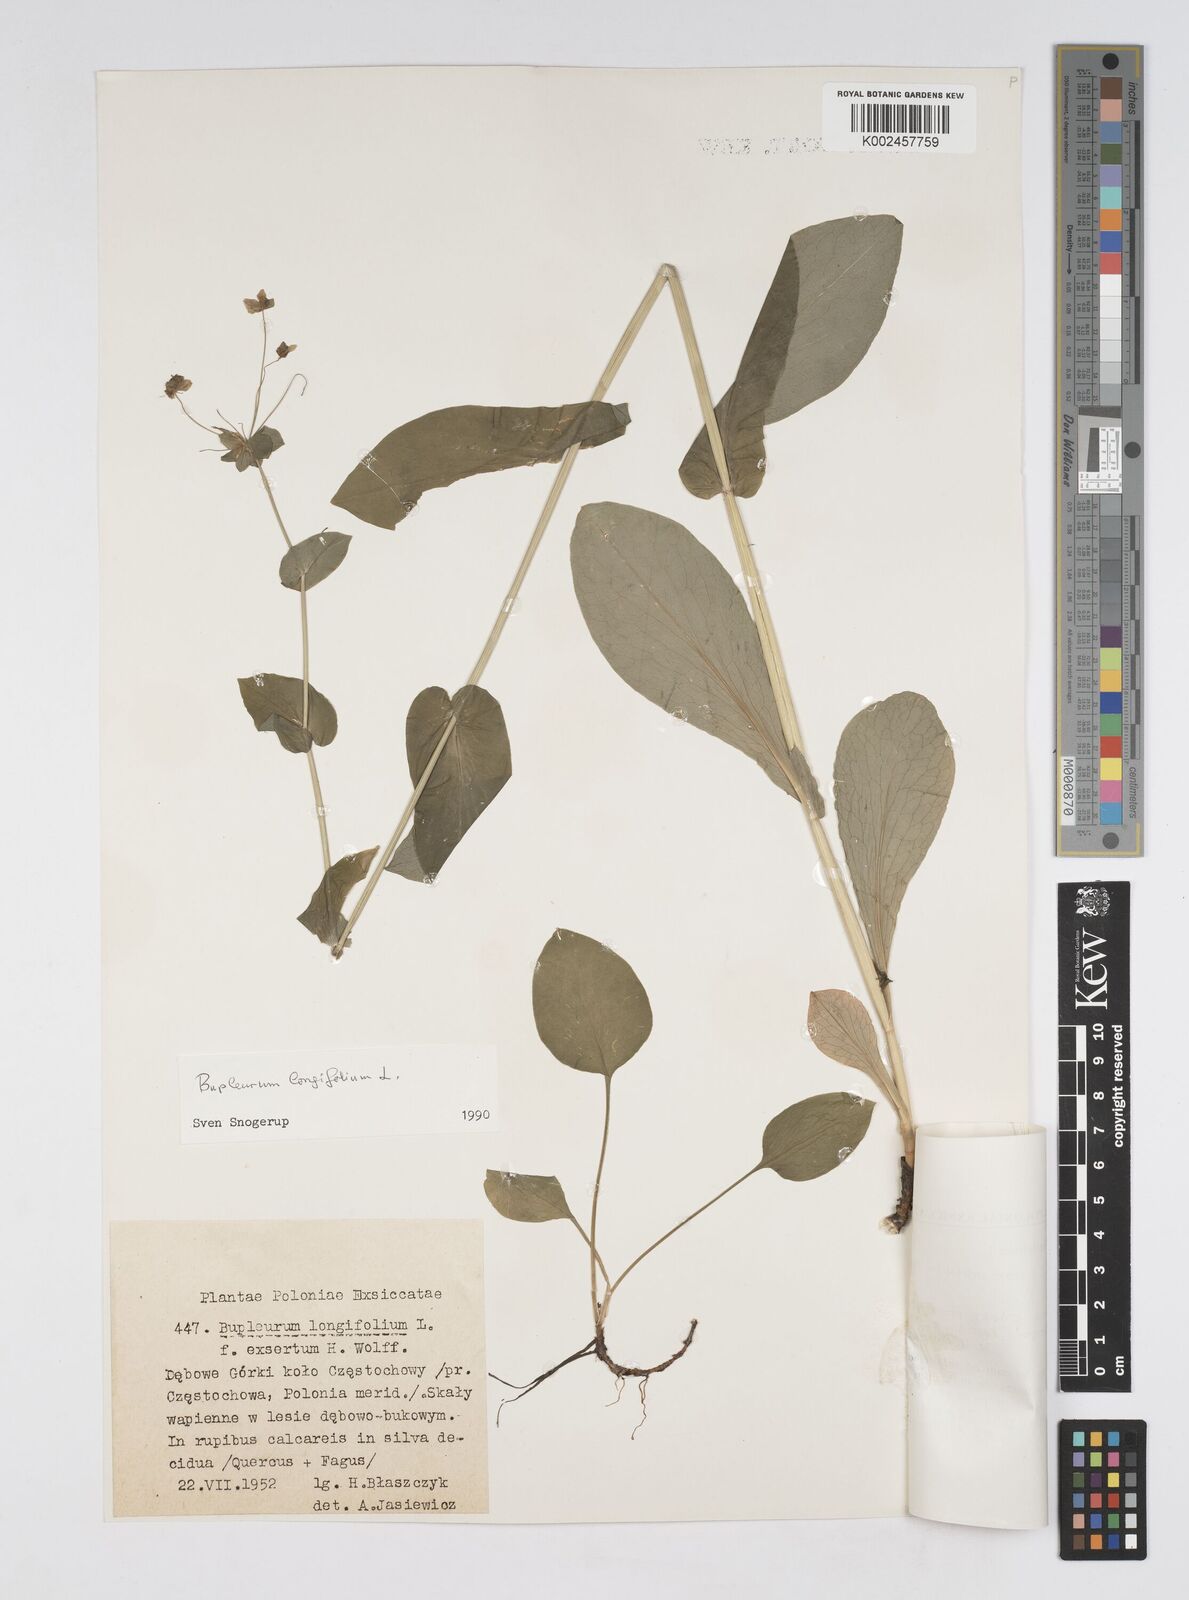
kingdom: Plantae
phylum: Tracheophyta
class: Magnoliopsida
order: Apiales
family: Apiaceae
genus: Bupleurum
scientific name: Bupleurum longifolium
